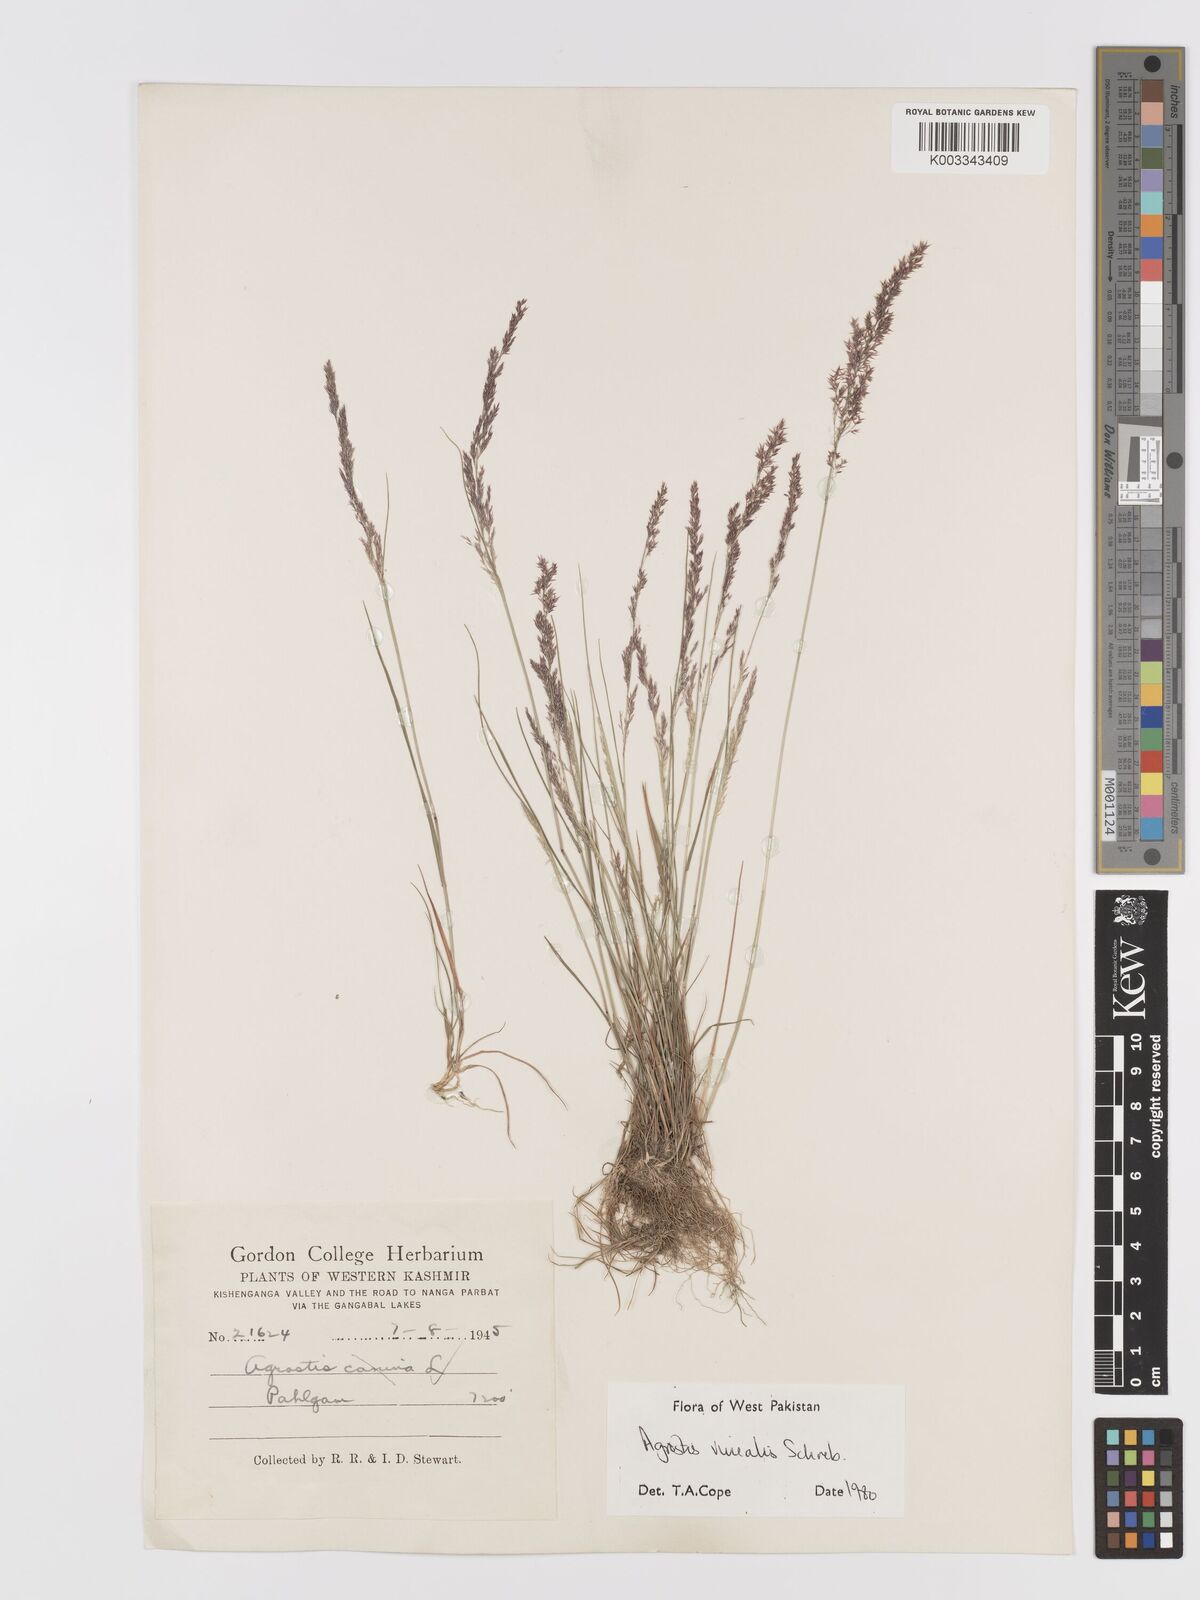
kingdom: Plantae
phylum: Tracheophyta
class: Liliopsida
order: Poales
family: Poaceae
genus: Agrostis
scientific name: Agrostis vinealis
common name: Brown bent
